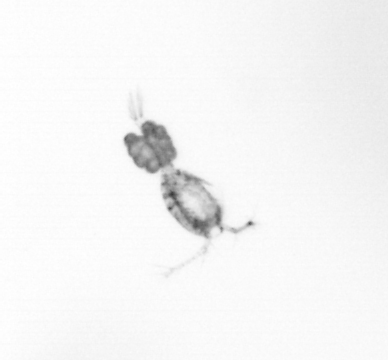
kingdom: Animalia
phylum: Arthropoda
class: Copepoda
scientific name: Copepoda
